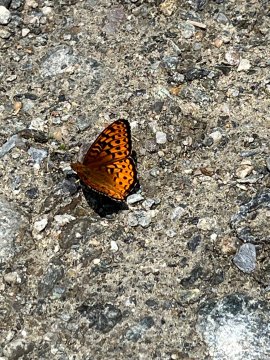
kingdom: Animalia
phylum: Arthropoda
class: Insecta
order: Lepidoptera
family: Nymphalidae
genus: Speyeria
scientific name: Speyeria atlantis
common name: Atlantis Fritillary
